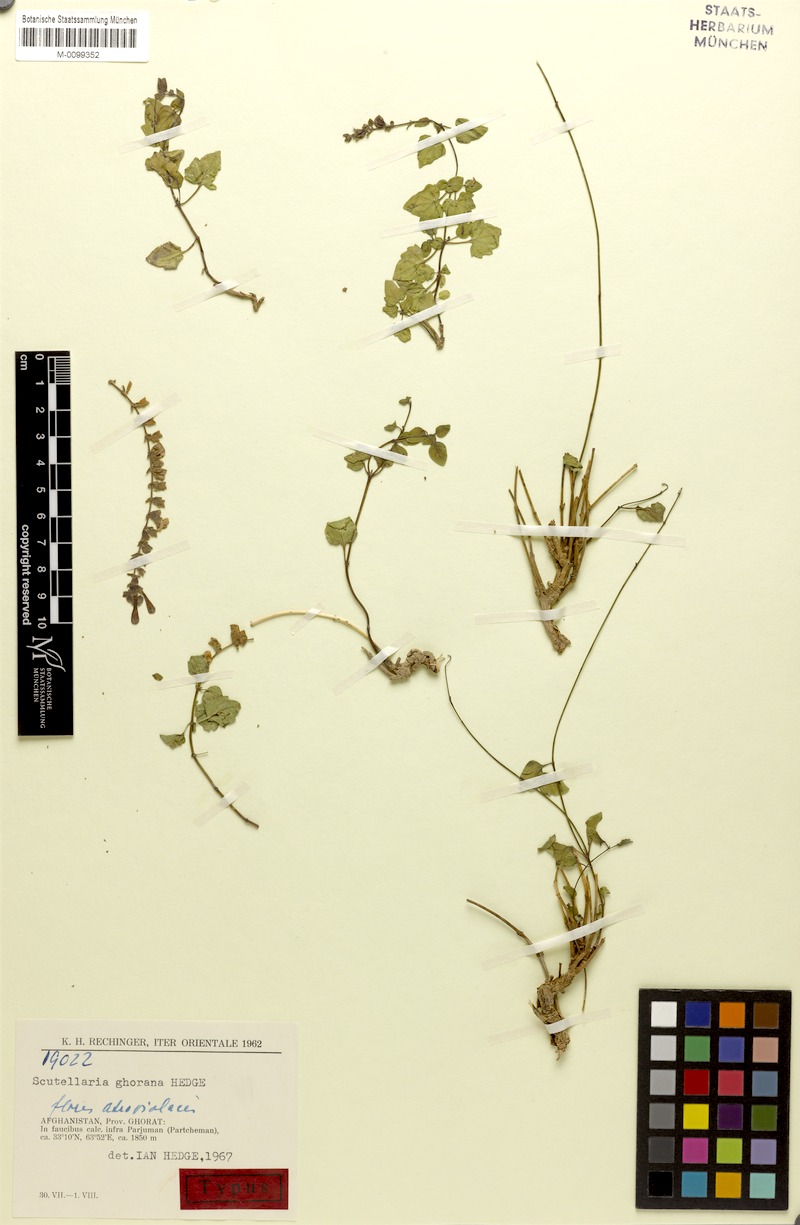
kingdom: Plantae
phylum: Tracheophyta
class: Magnoliopsida
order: Lamiales
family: Lamiaceae
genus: Scutellaria
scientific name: Scutellaria ghorana
